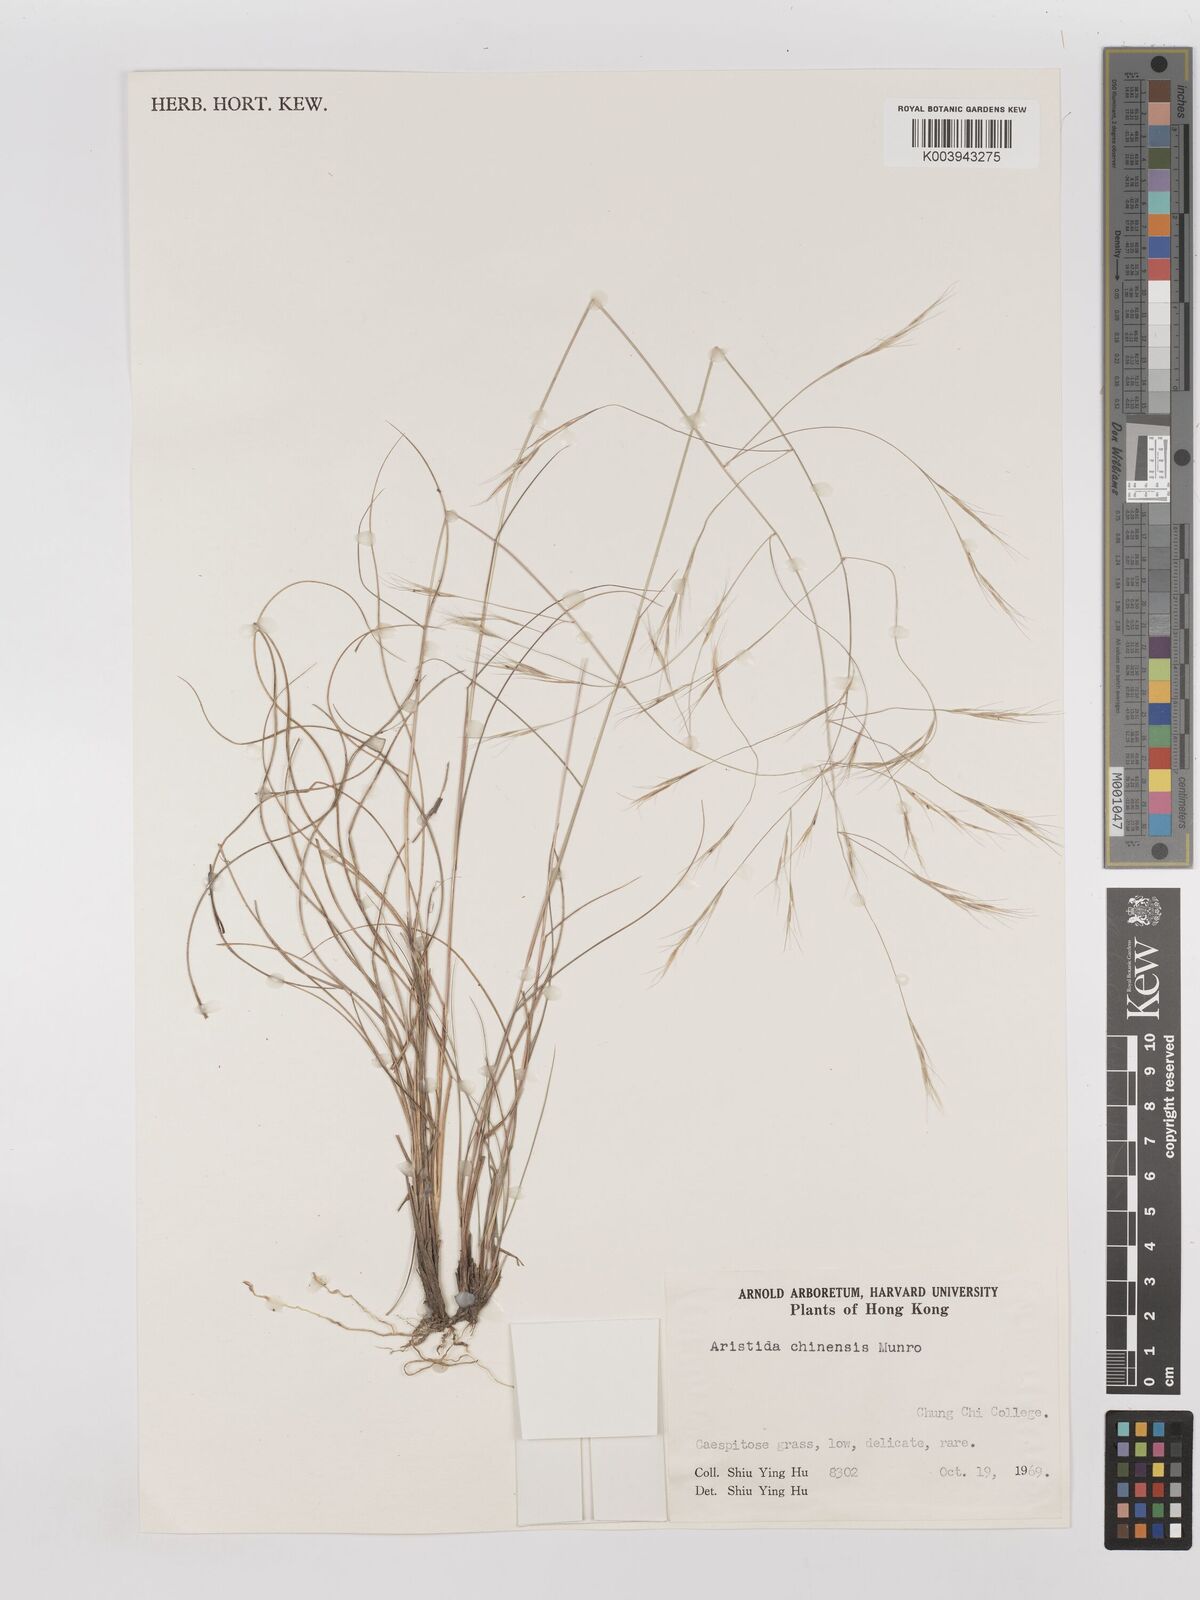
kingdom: Plantae
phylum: Tracheophyta
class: Liliopsida
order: Poales
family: Poaceae
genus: Aristida
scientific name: Aristida chinensis
